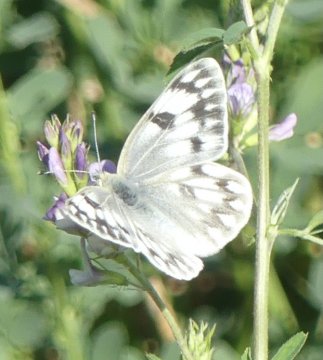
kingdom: Animalia
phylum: Arthropoda
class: Insecta
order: Lepidoptera
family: Pieridae
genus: Pontia
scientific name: Pontia occidentalis
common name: Western White
